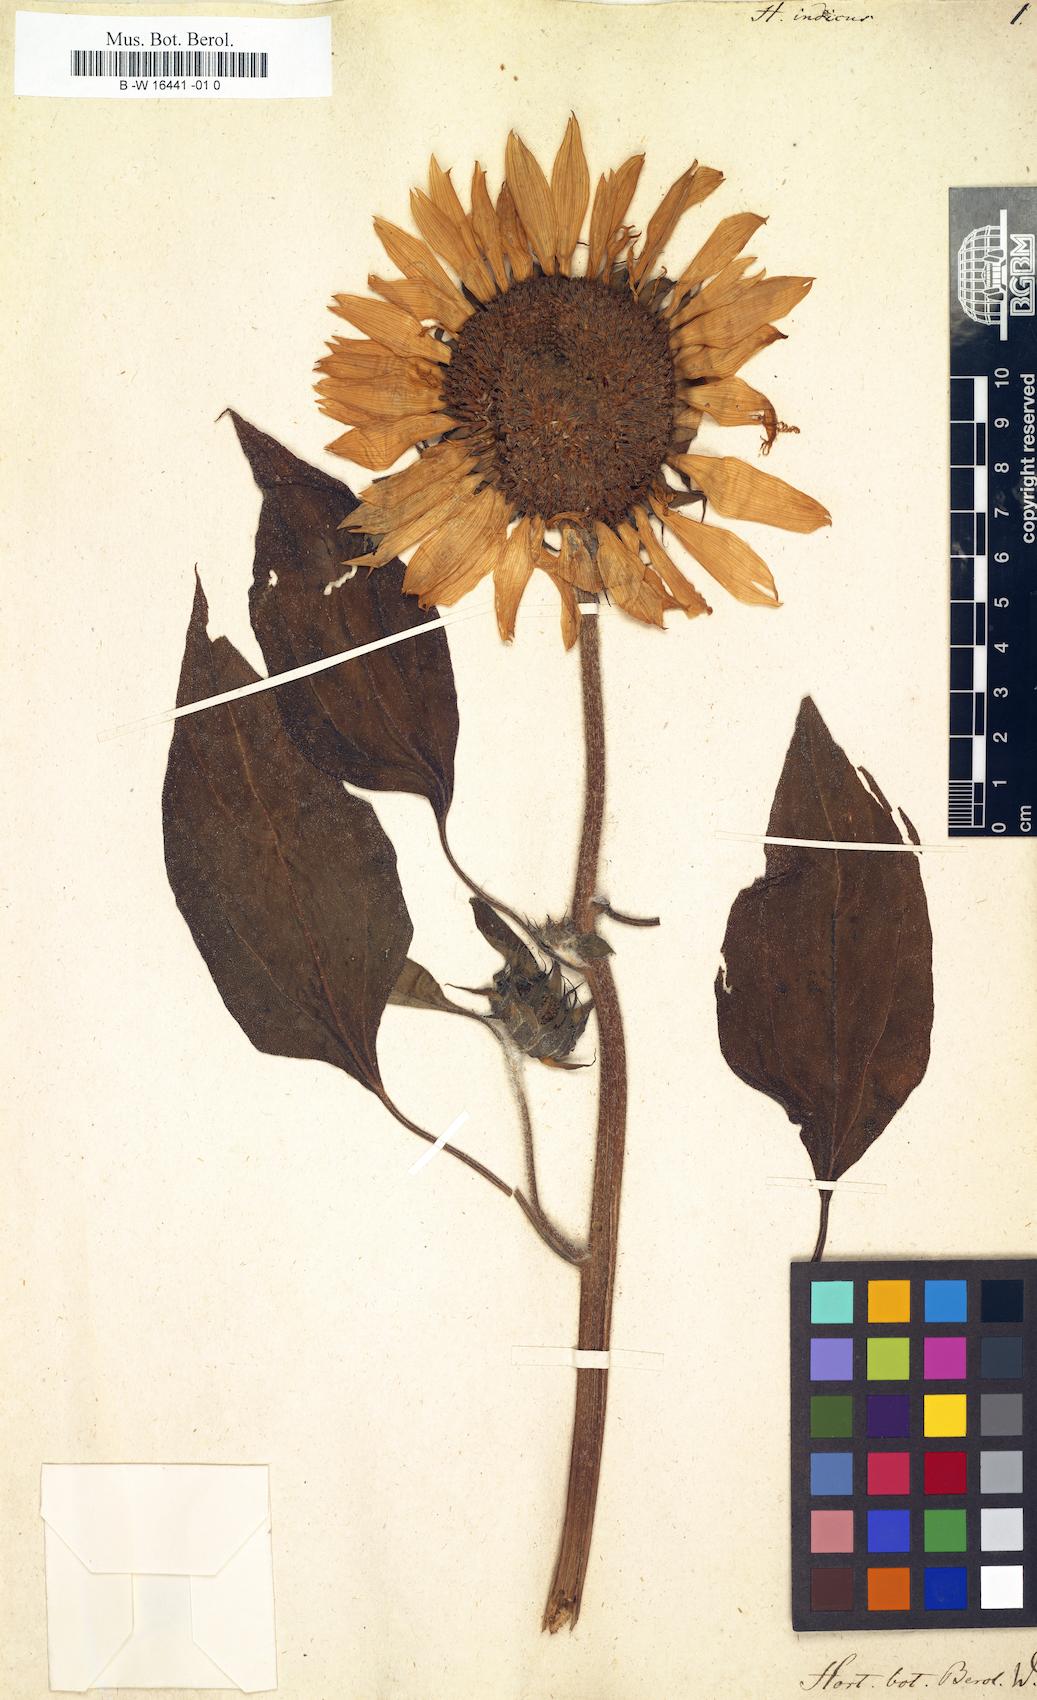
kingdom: Plantae
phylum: Tracheophyta
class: Magnoliopsida
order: Asterales
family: Asteraceae
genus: Helianthus
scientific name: Helianthus annuus
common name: Sunflower
